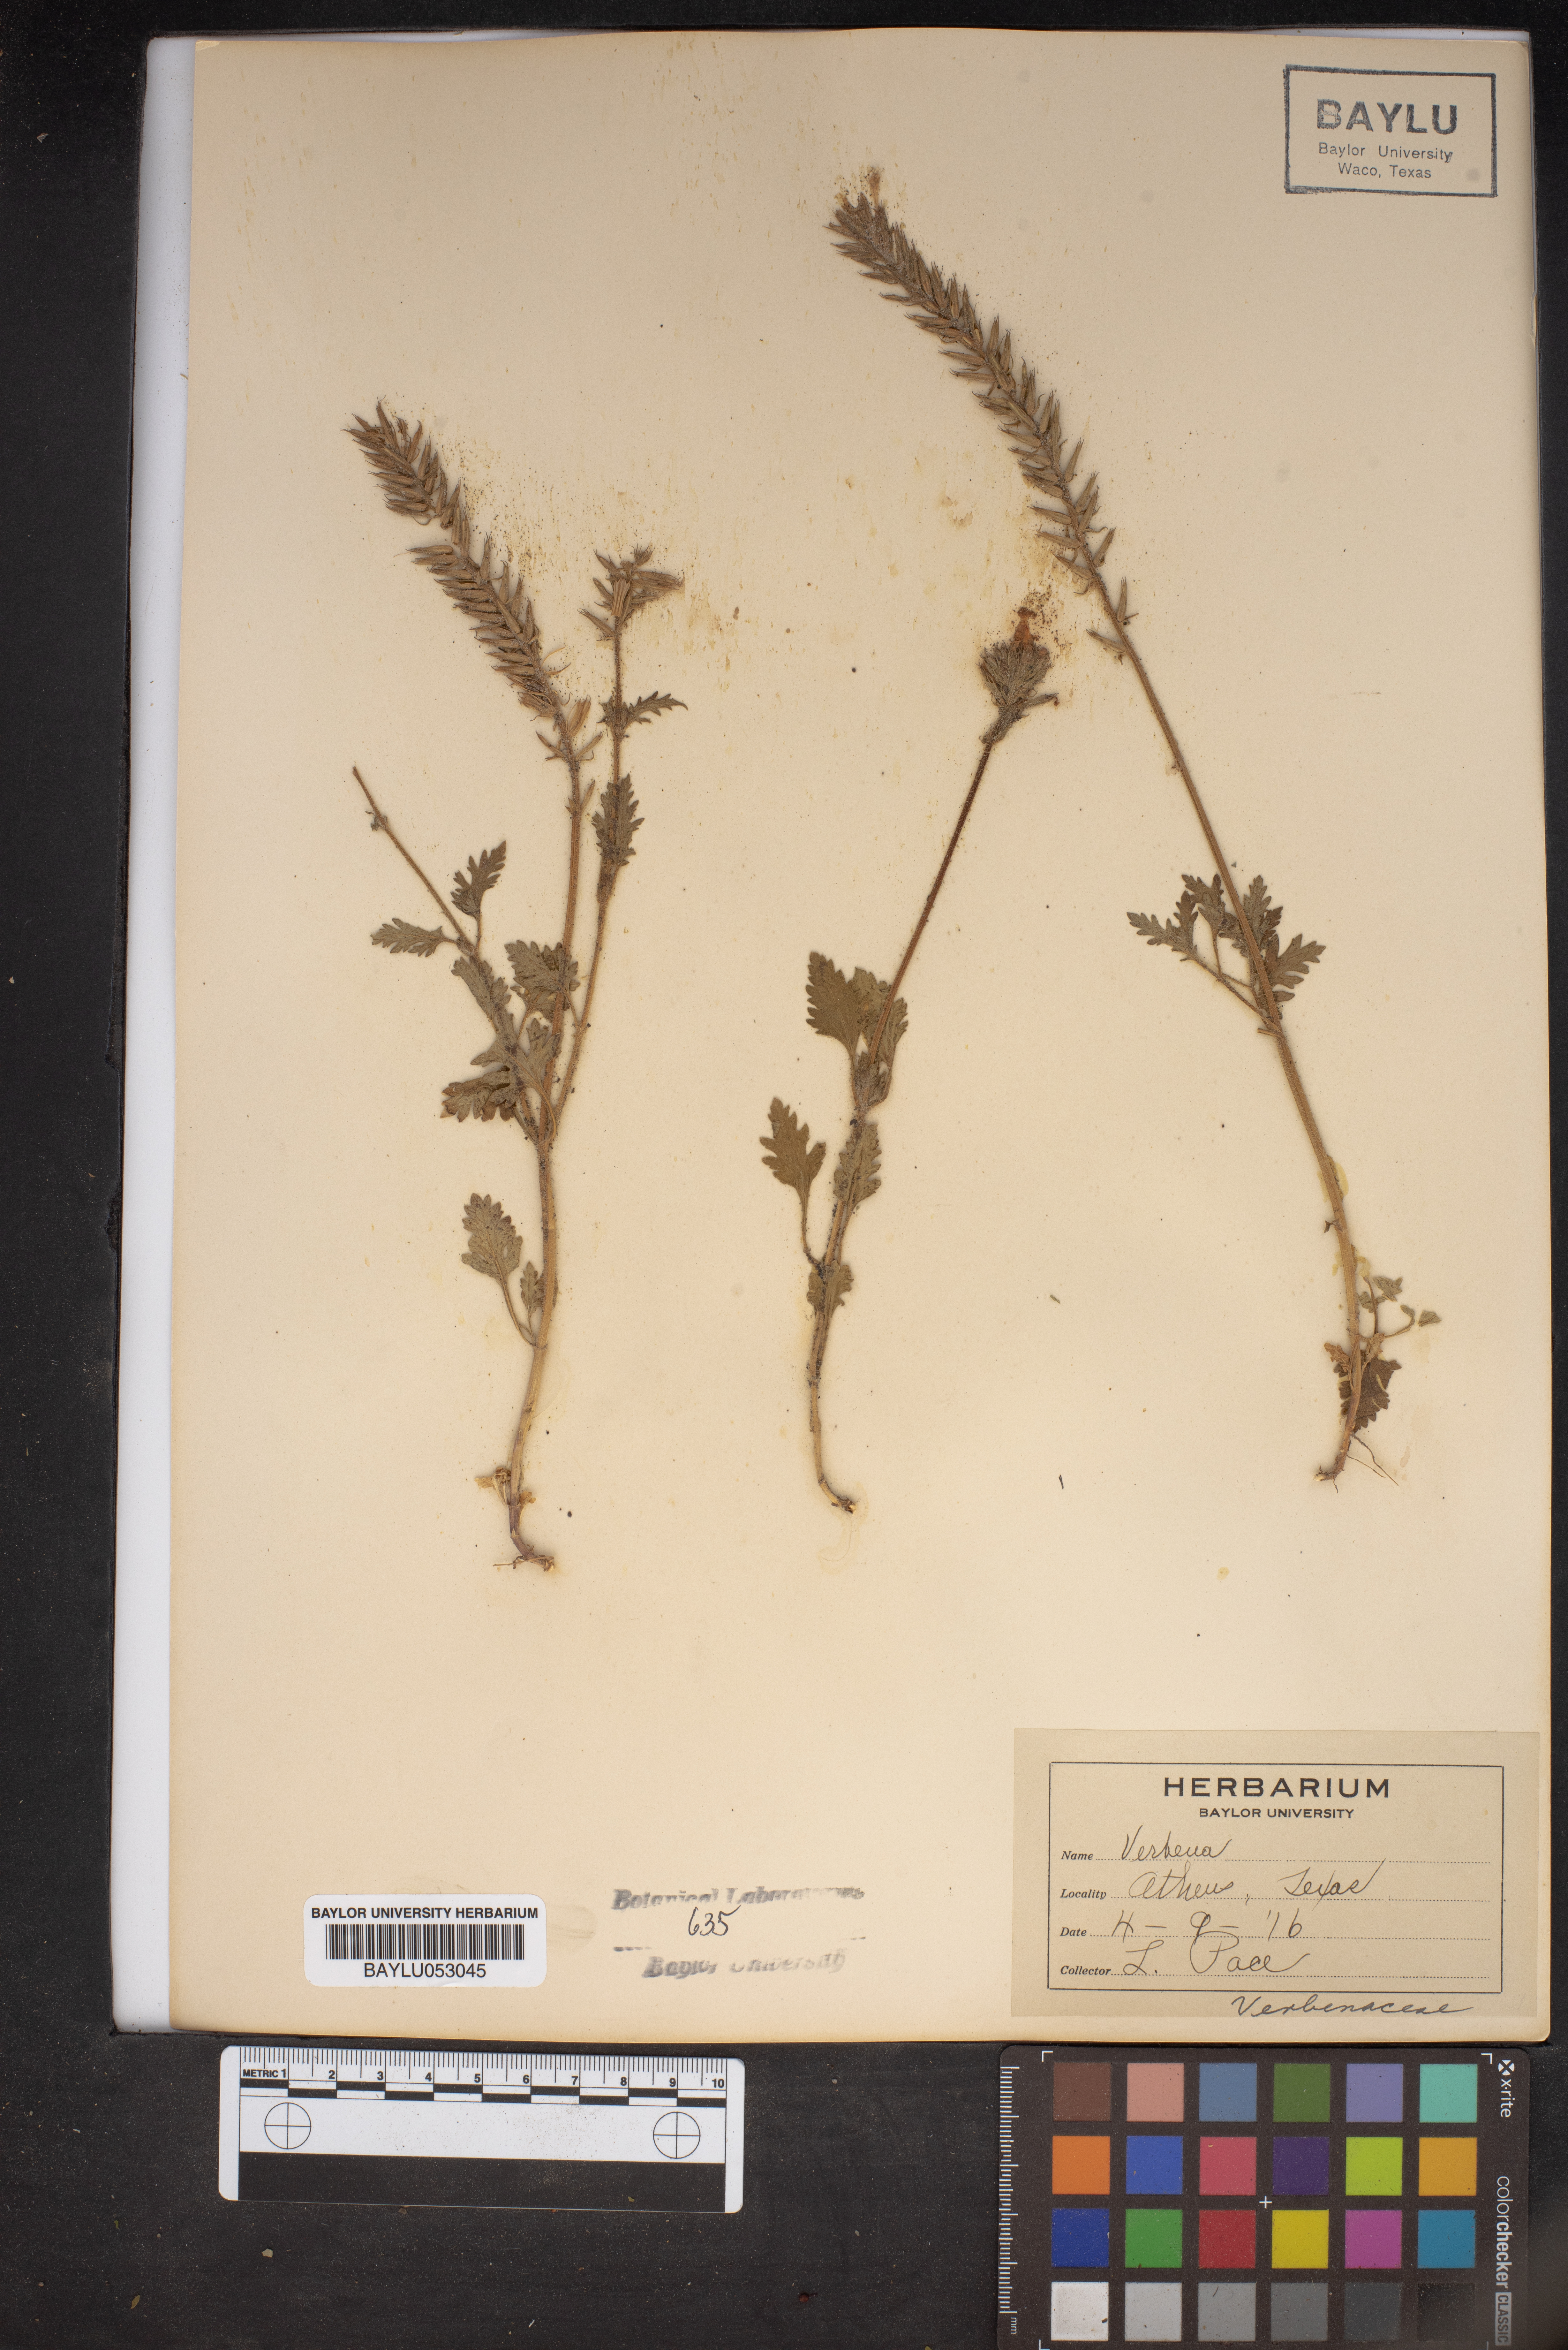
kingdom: Plantae
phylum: Tracheophyta
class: Magnoliopsida
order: Lamiales
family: Verbenaceae
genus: Verbena
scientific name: Verbena
